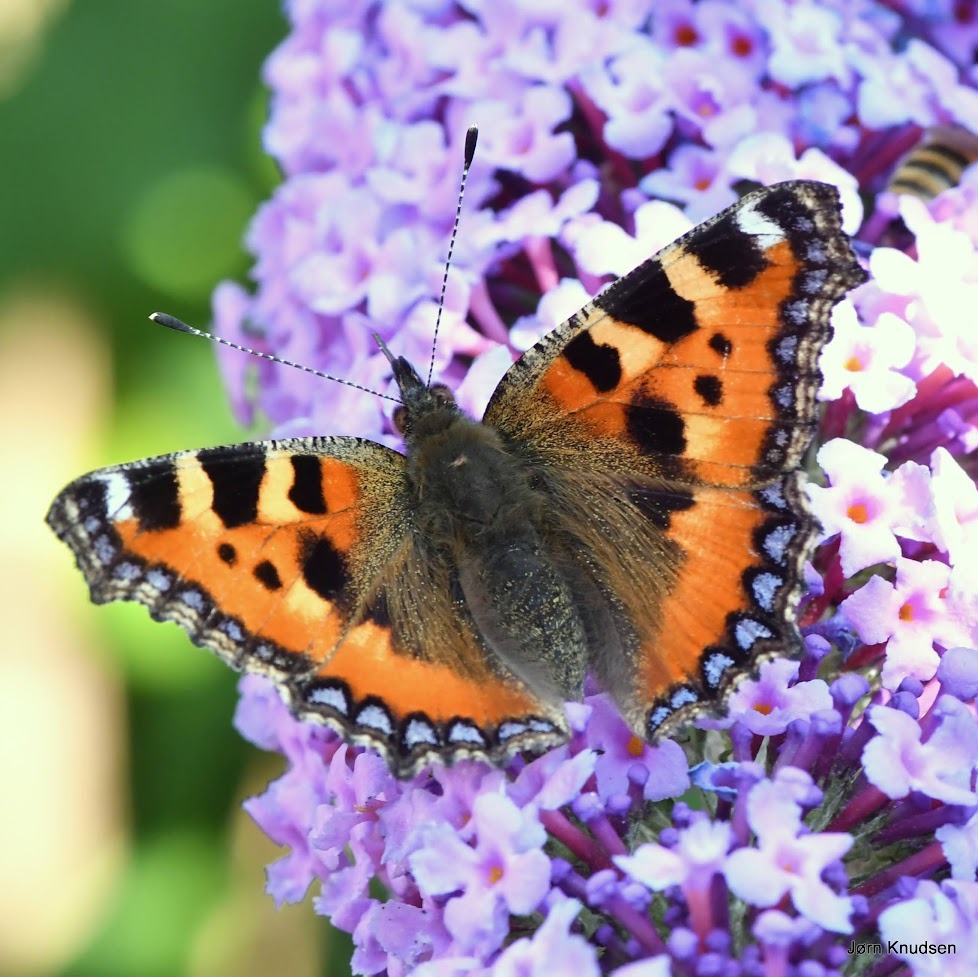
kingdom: Animalia
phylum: Arthropoda
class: Insecta
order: Lepidoptera
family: Nymphalidae
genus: Aglais
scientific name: Aglais urticae
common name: Nældens takvinge
